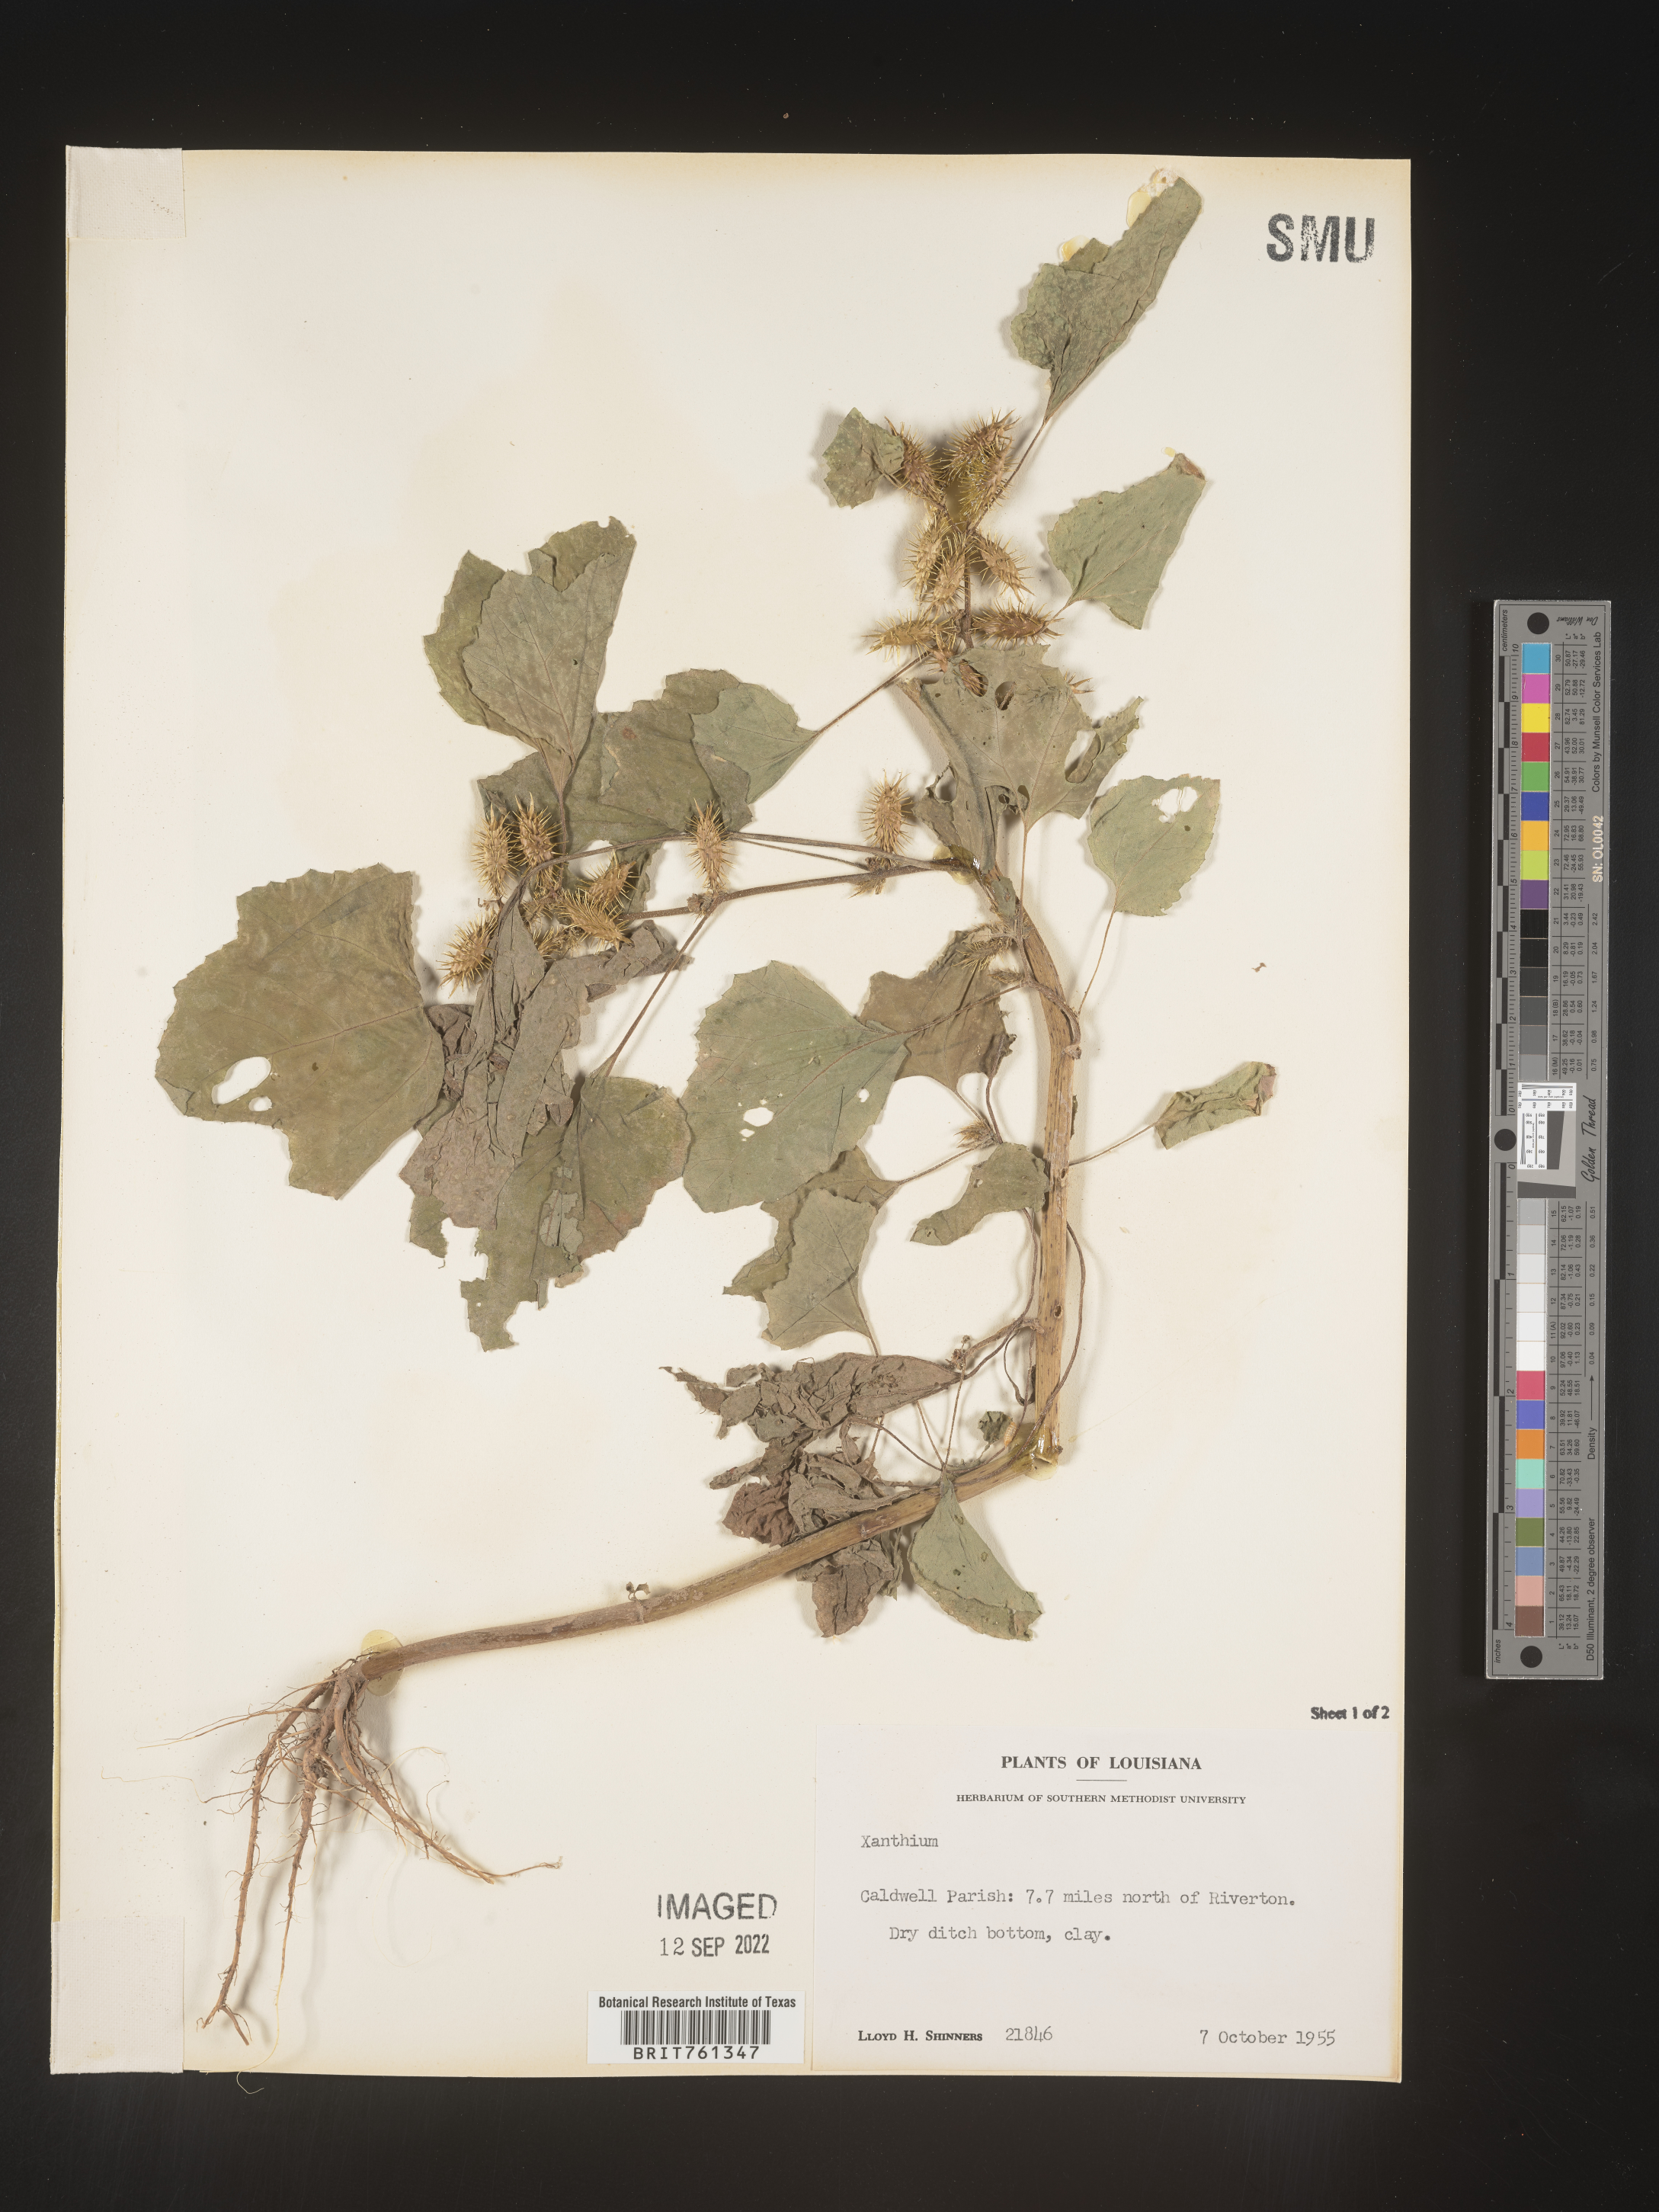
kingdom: Plantae
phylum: Tracheophyta
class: Magnoliopsida
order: Asterales
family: Asteraceae
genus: Xanthium
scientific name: Xanthium
